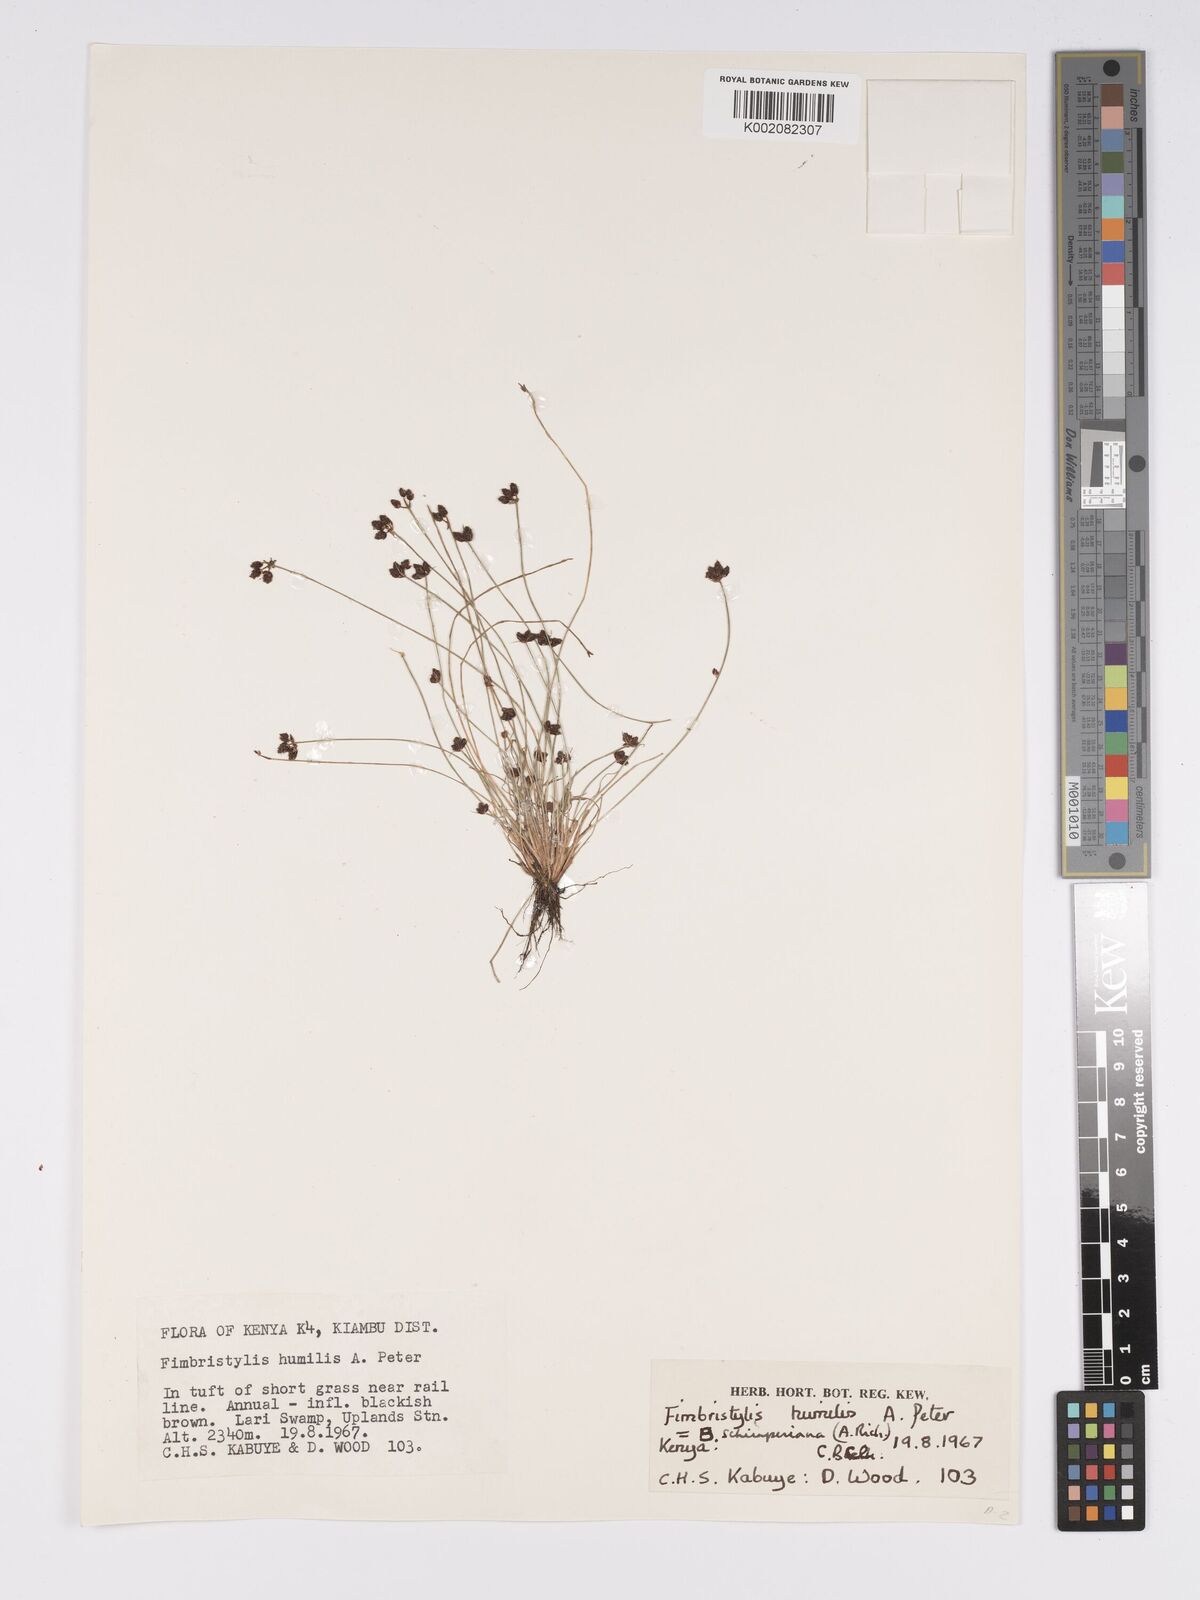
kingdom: Plantae
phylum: Tracheophyta
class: Liliopsida
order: Poales
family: Cyperaceae
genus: Bulbostylis
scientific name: Bulbostylis schimperiana
